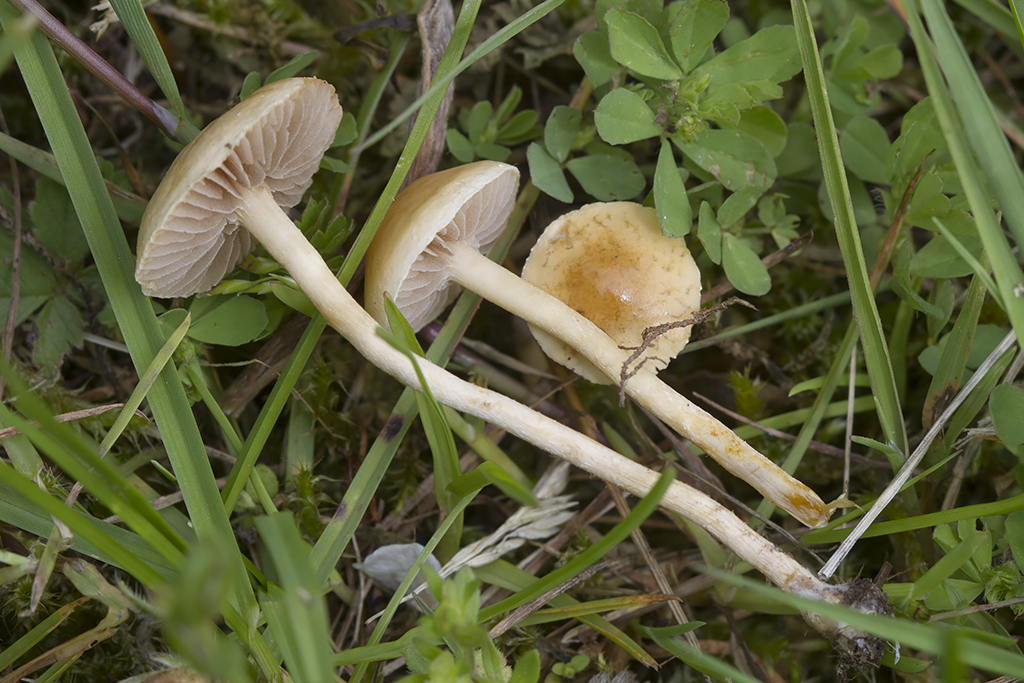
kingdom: Fungi
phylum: Basidiomycota
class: Agaricomycetes
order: Agaricales
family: Strophariaceae
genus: Agrocybe
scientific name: Agrocybe pediades
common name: almindelig agerhat
